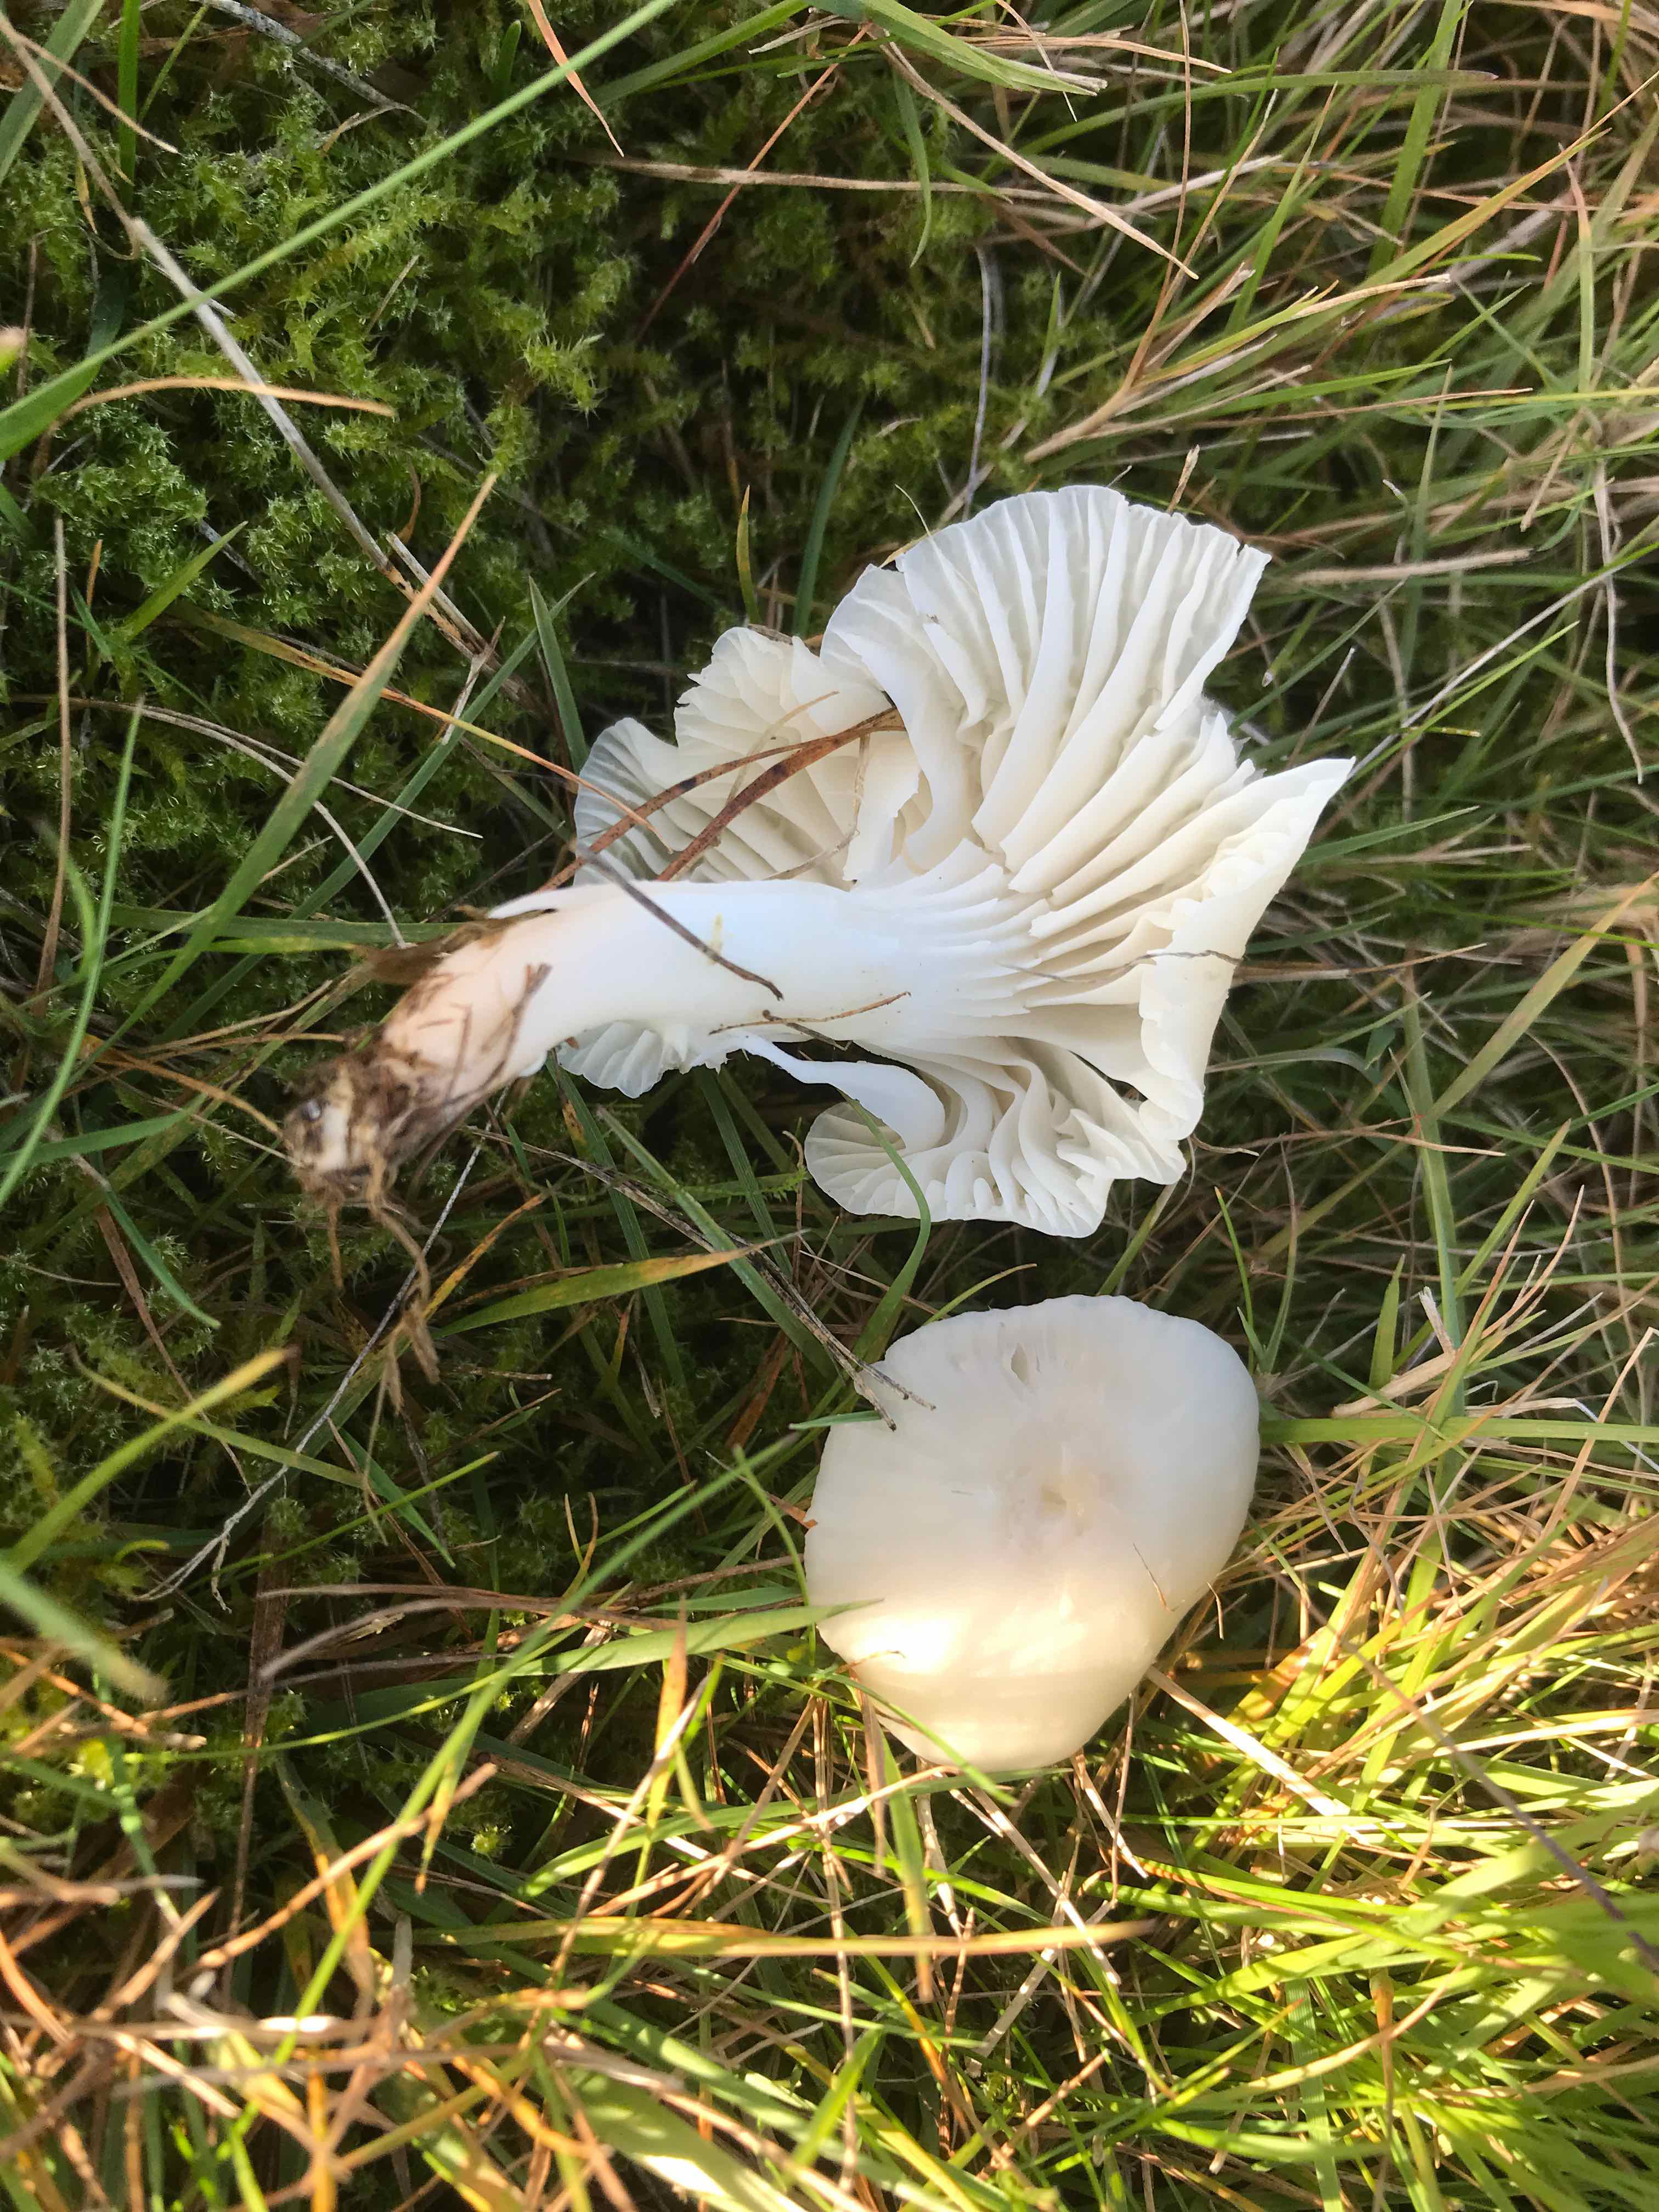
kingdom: Fungi
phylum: Basidiomycota
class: Agaricomycetes
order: Agaricales
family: Hygrophoraceae
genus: Cuphophyllus
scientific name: Cuphophyllus virgineus
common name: snehvid vokshat
